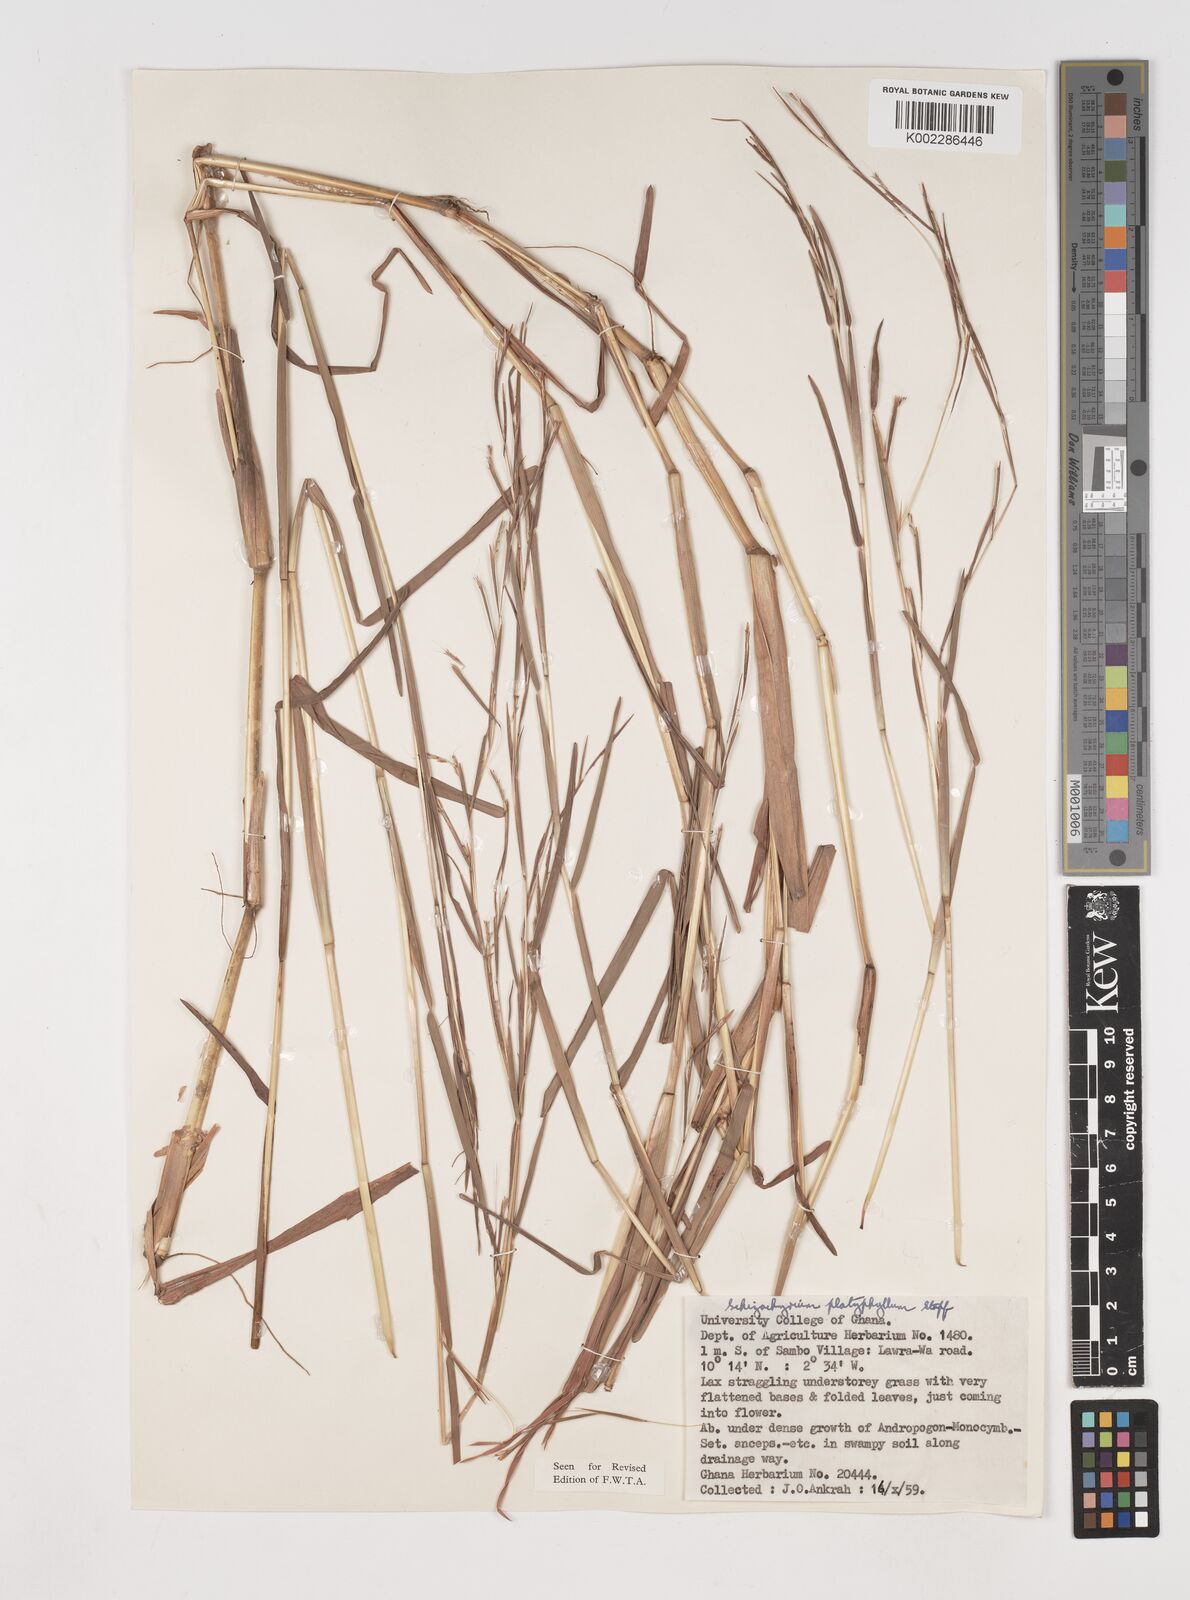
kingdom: Plantae
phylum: Tracheophyta
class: Liliopsida
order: Poales
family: Poaceae
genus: Schizachyrium
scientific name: Schizachyrium platyphyllum
